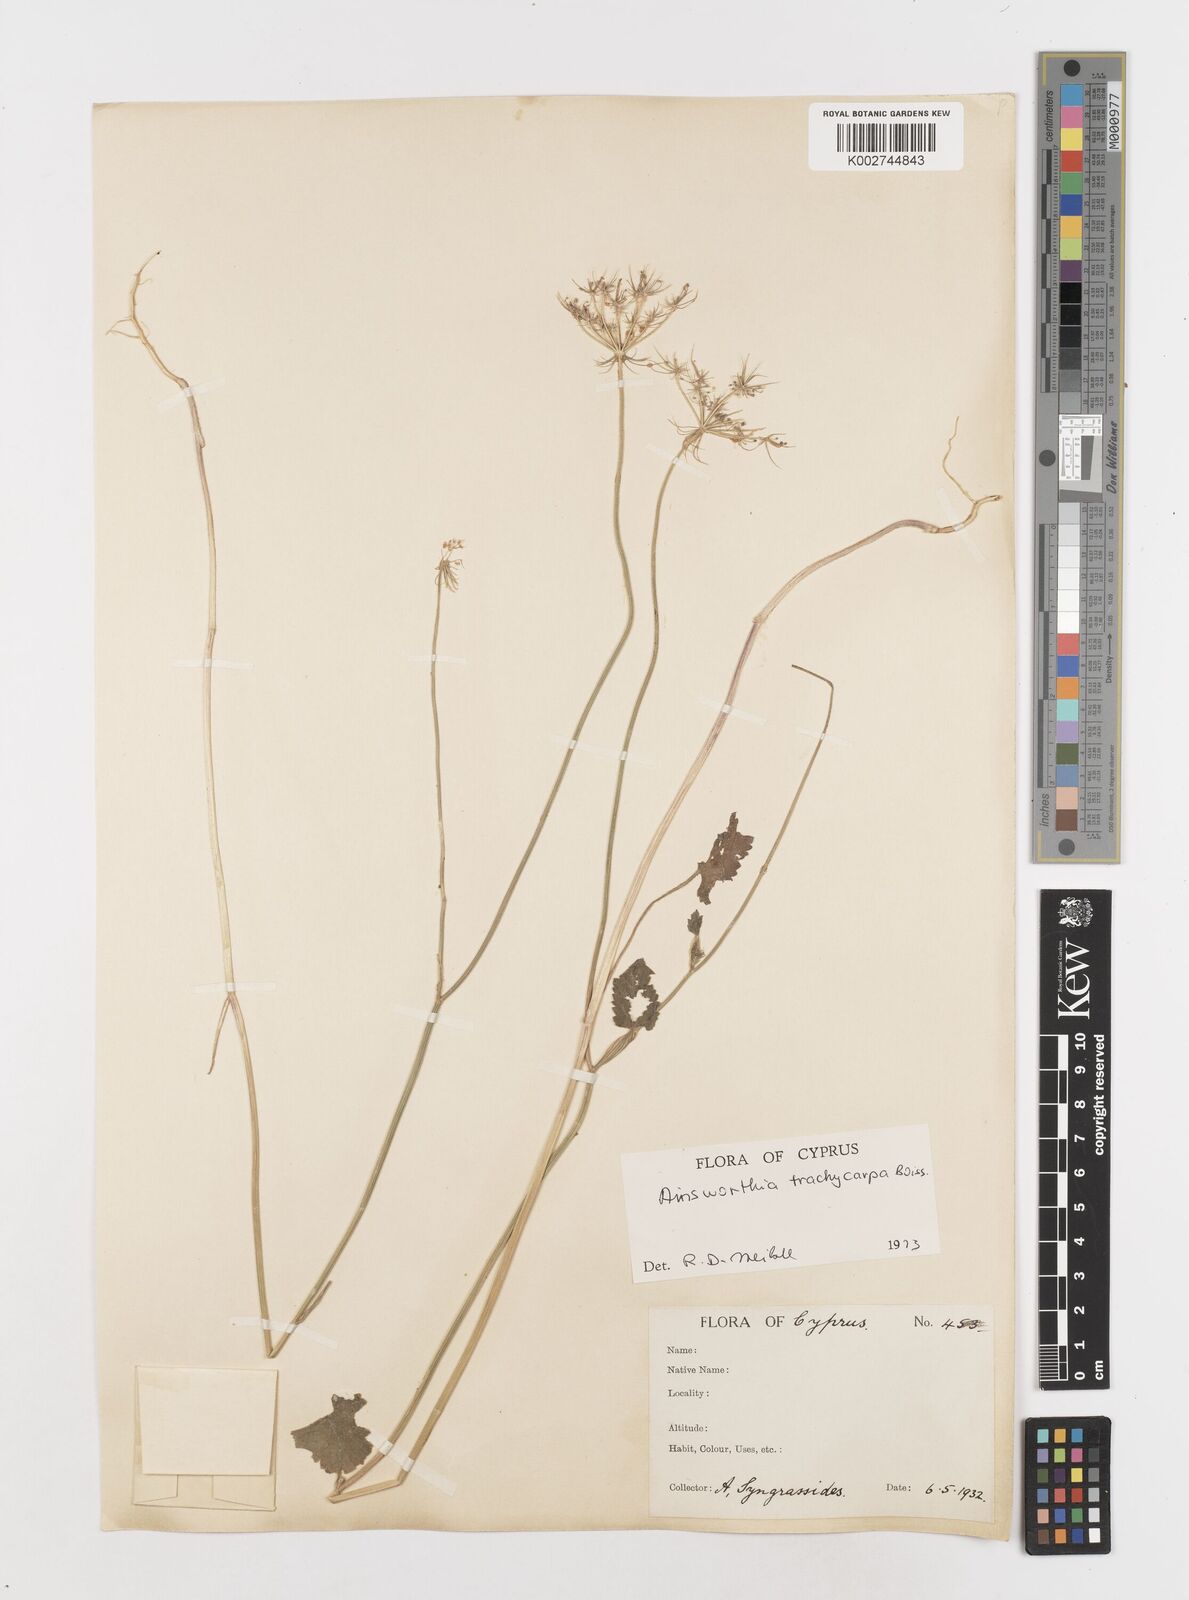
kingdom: Plantae
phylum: Tracheophyta
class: Magnoliopsida
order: Apiales
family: Apiaceae
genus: Ainsworthia
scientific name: Ainsworthia trachycarpa
